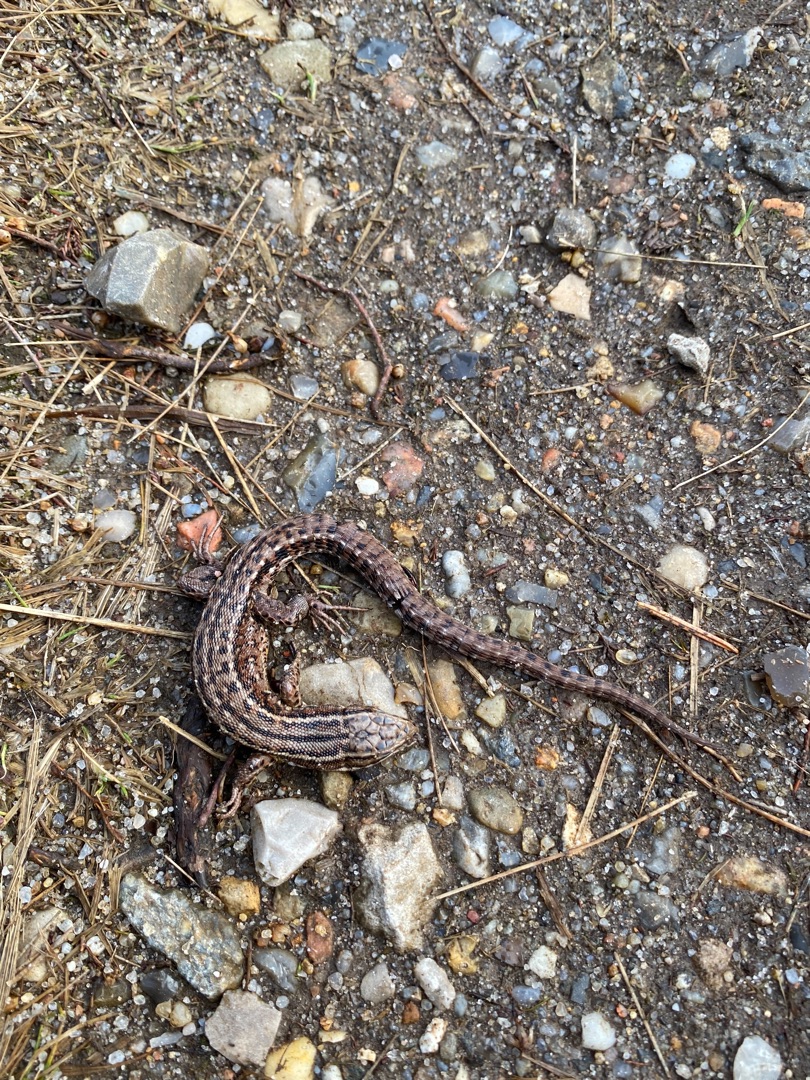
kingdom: Animalia
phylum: Chordata
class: Squamata
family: Lacertidae
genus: Zootoca
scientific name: Zootoca vivipara
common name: Skovfirben
